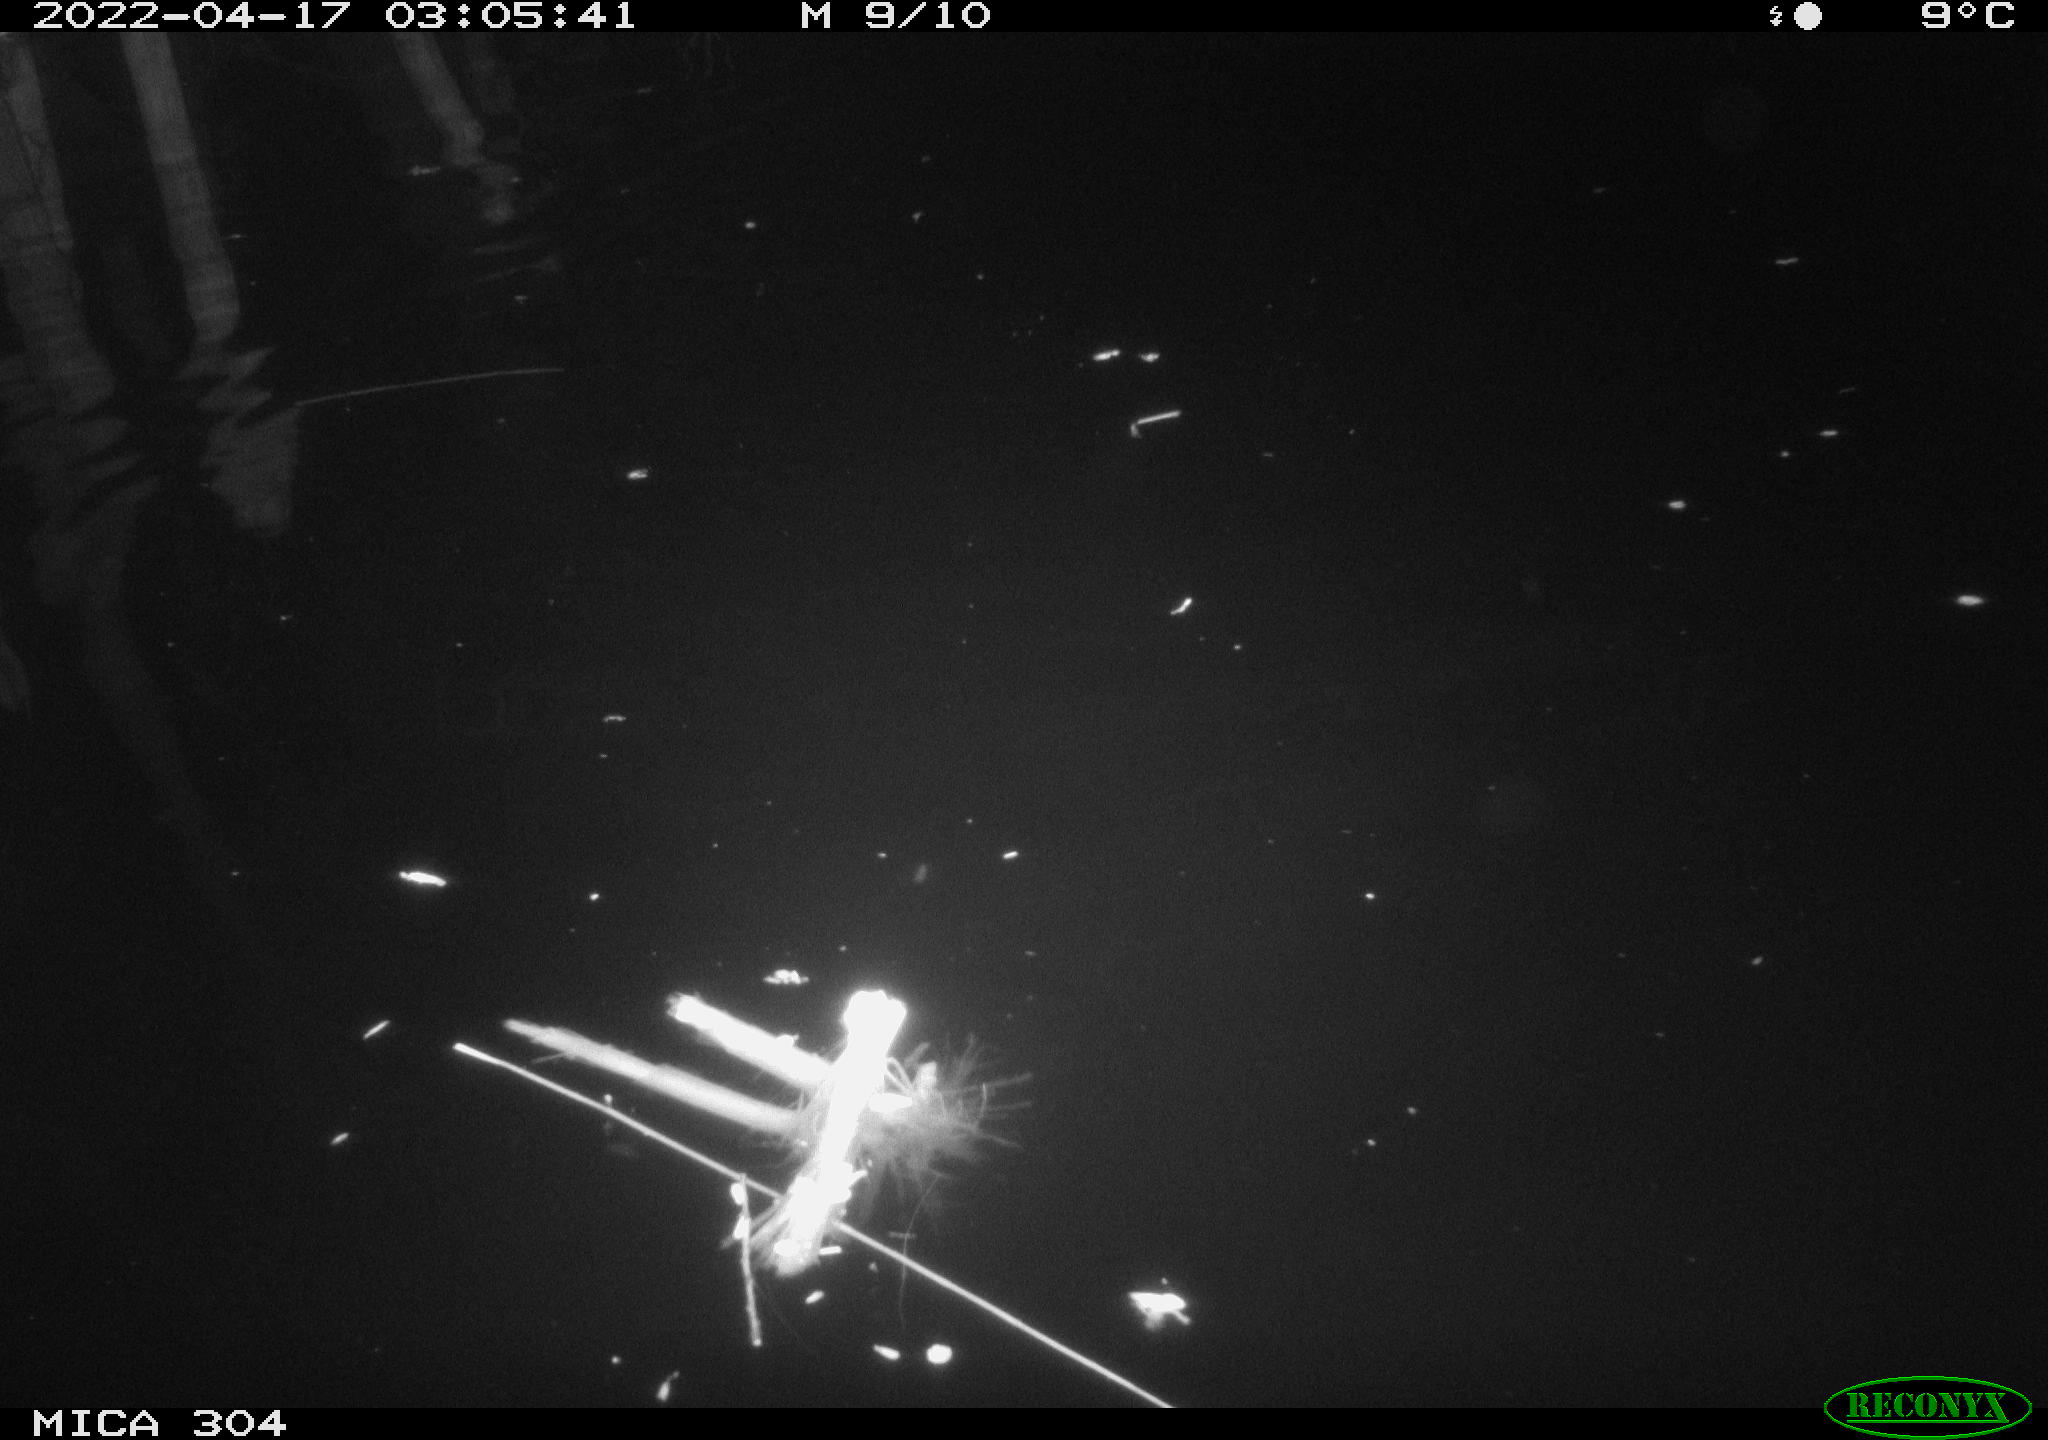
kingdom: Animalia
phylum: Chordata
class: Mammalia
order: Rodentia
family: Cricetidae
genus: Ondatra
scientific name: Ondatra zibethicus
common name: Muskrat
